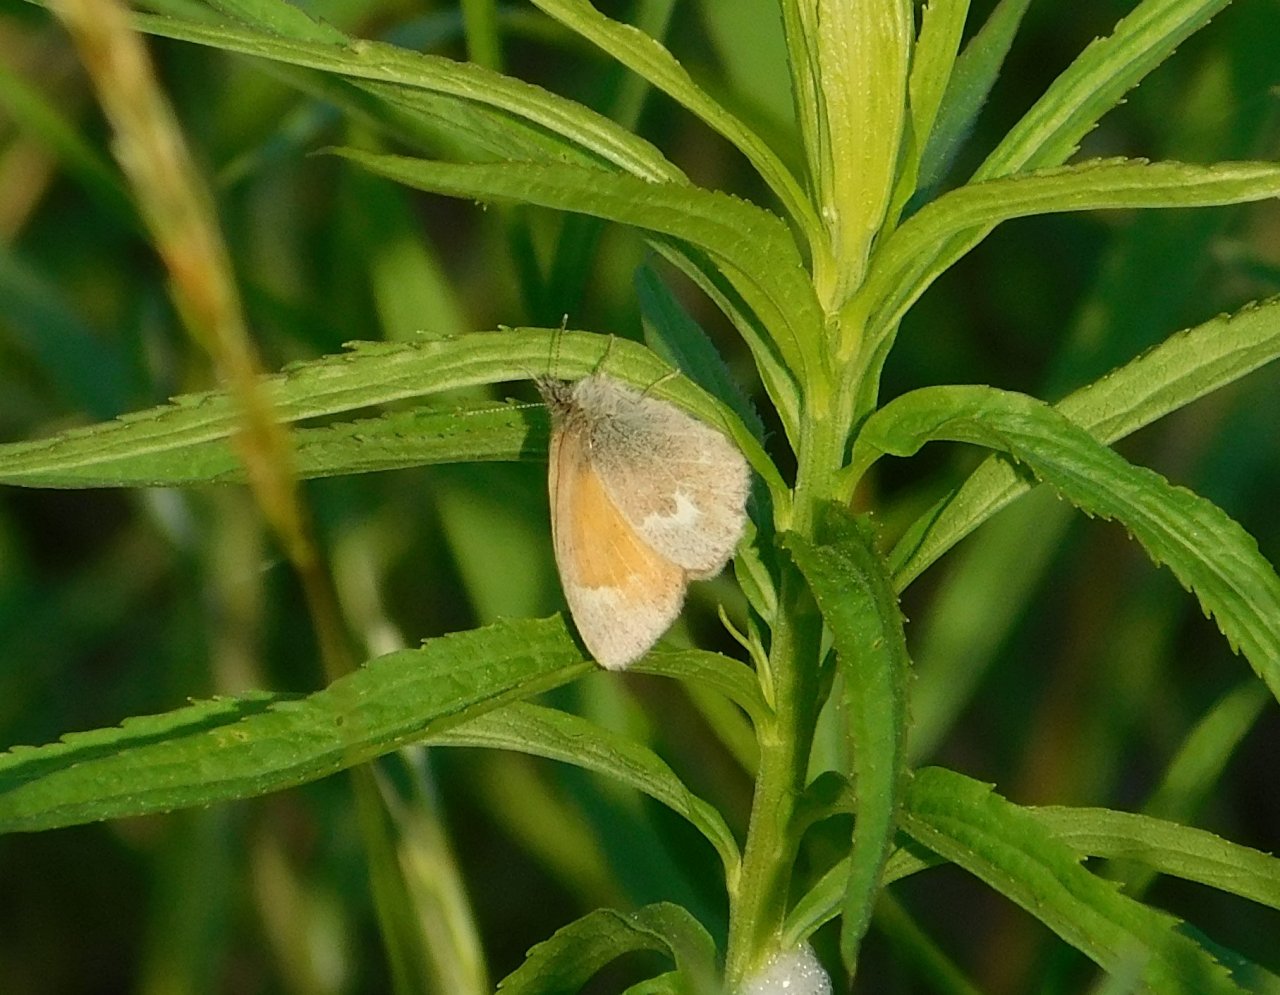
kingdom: Animalia
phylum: Arthropoda
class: Insecta
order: Lepidoptera
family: Nymphalidae
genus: Coenonympha
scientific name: Coenonympha tullia
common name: Large Heath
